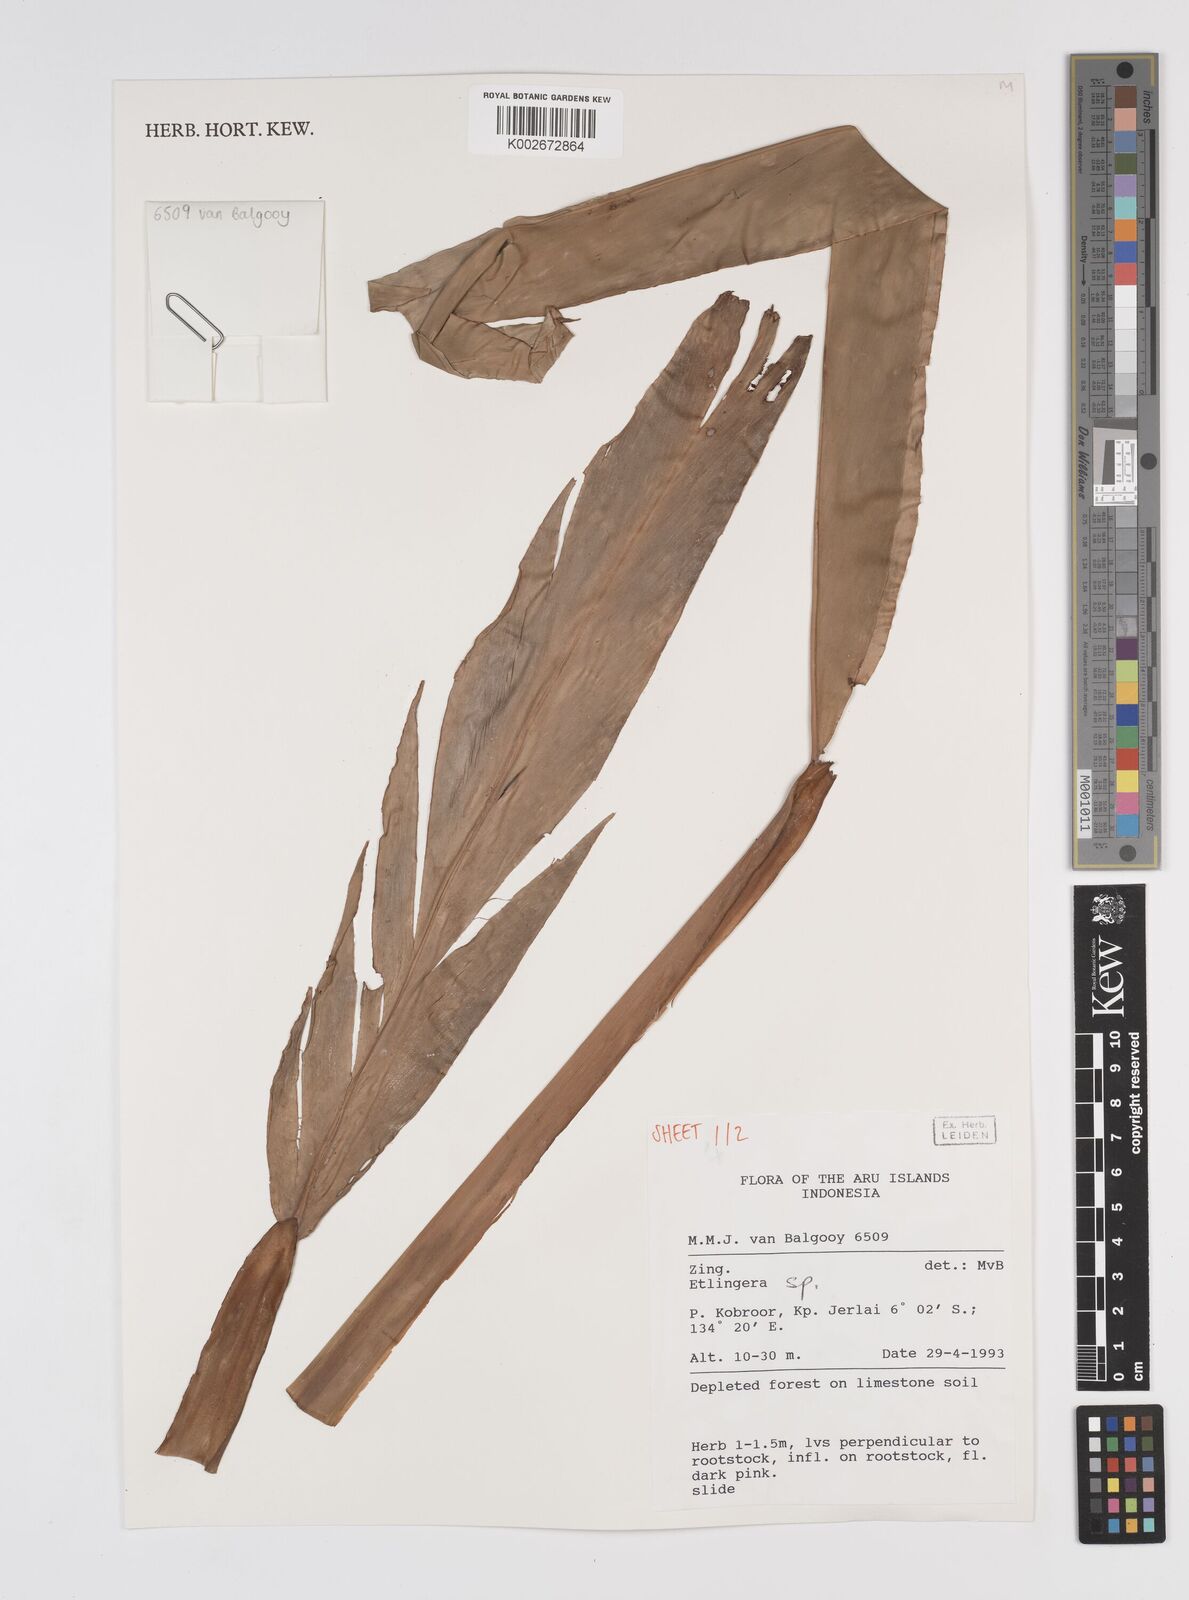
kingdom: Plantae
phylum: Tracheophyta
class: Liliopsida
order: Zingiberales
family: Zingiberaceae
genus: Etlingera
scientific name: Etlingera
